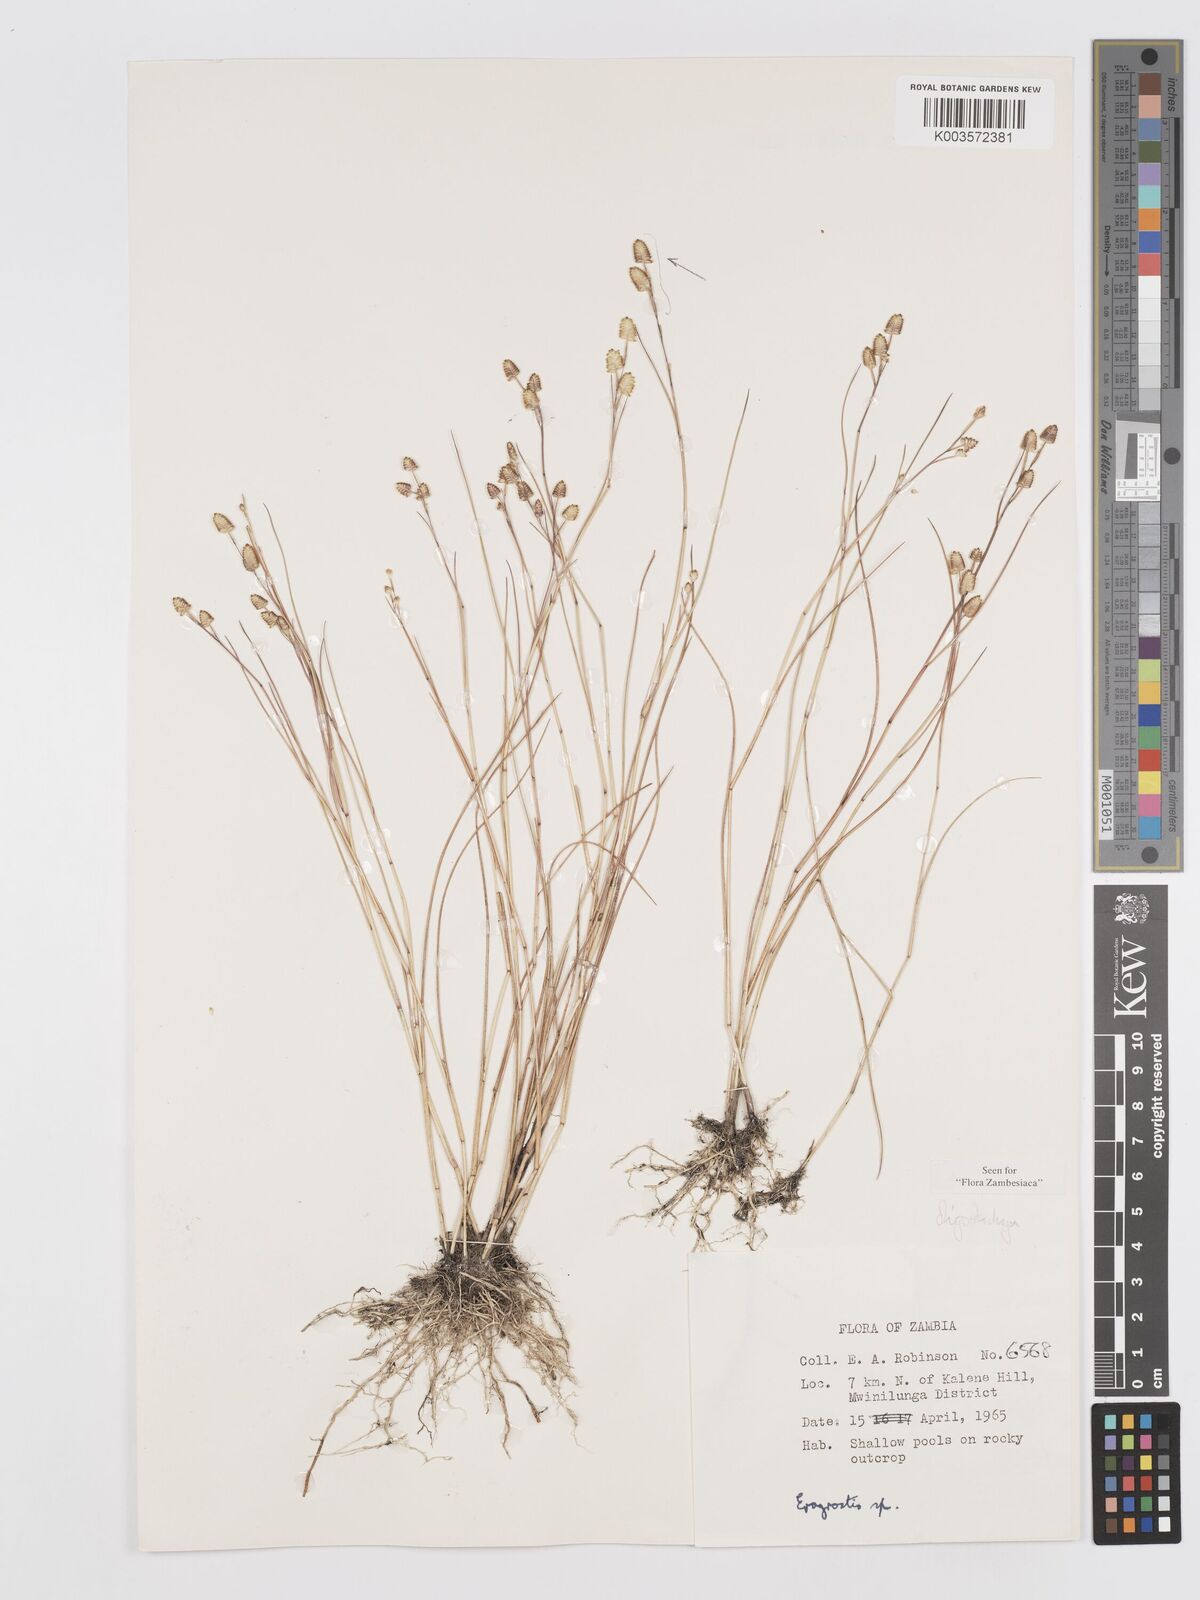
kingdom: Plantae
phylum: Tracheophyta
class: Liliopsida
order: Poales
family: Poaceae
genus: Eragrostis
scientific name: Eragrostis oligostachya
